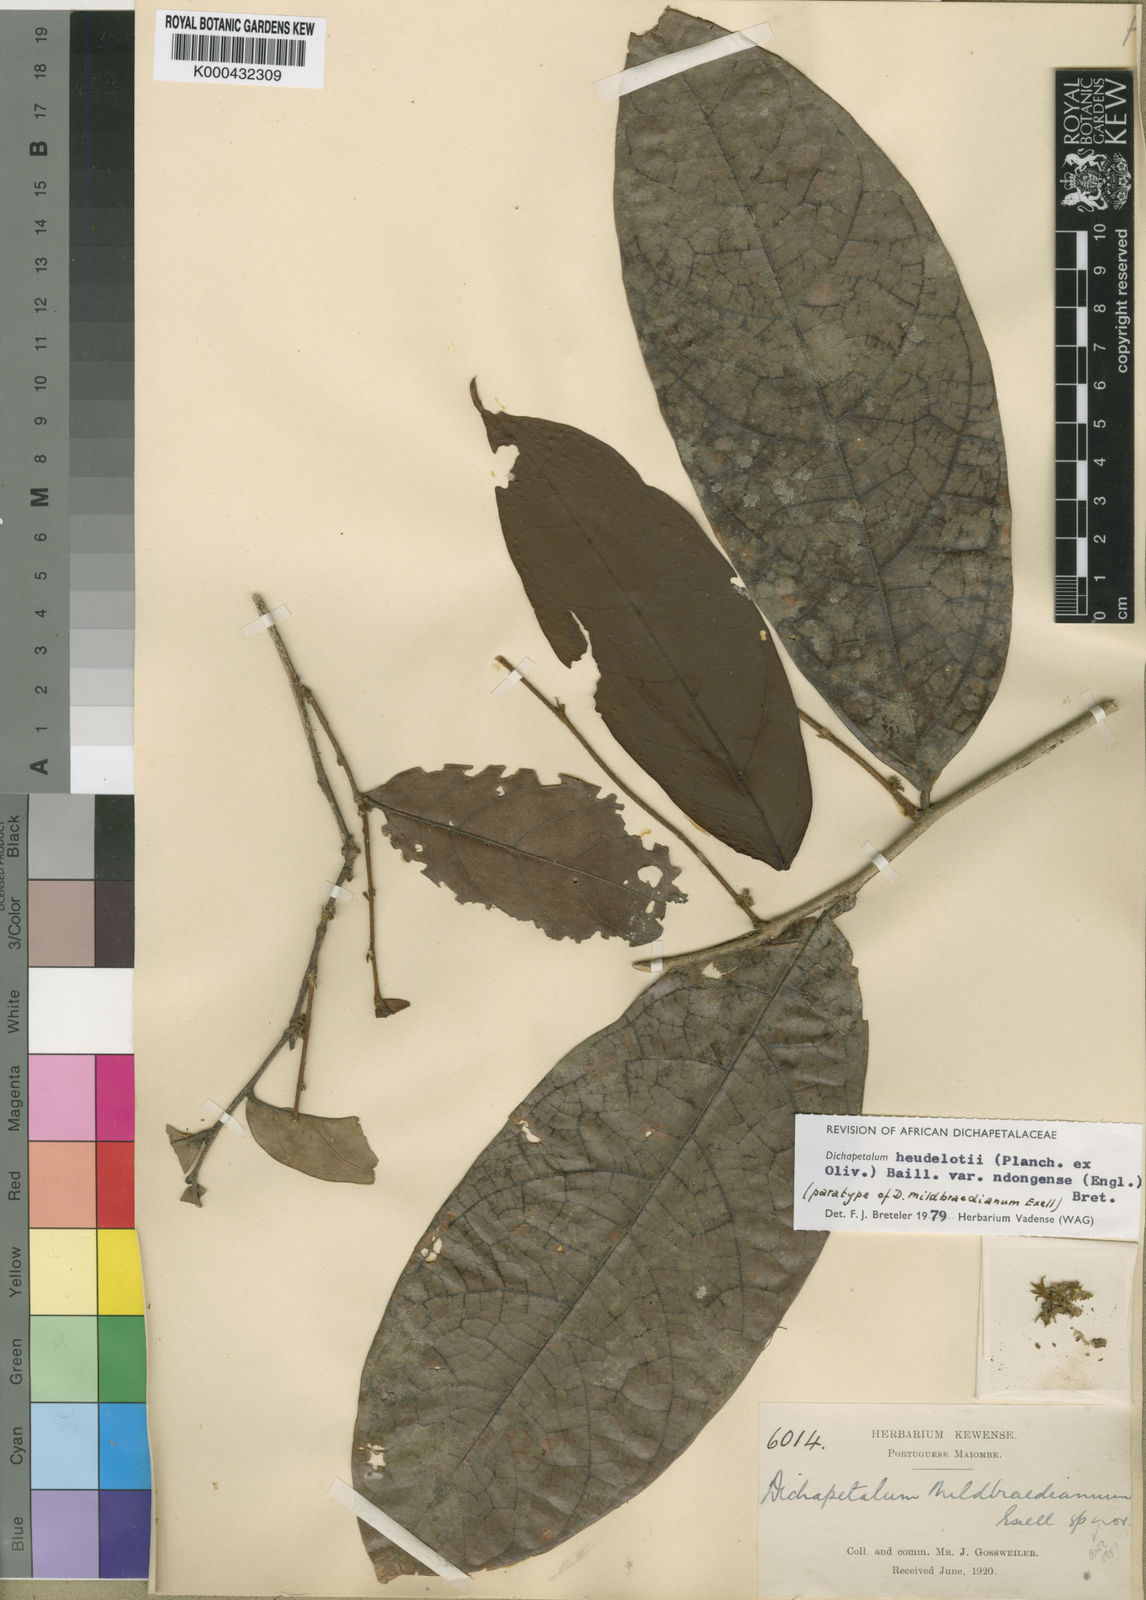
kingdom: Plantae
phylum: Tracheophyta
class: Magnoliopsida
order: Malpighiales
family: Dichapetalaceae
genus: Dichapetalum
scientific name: Dichapetalum heudelotii
